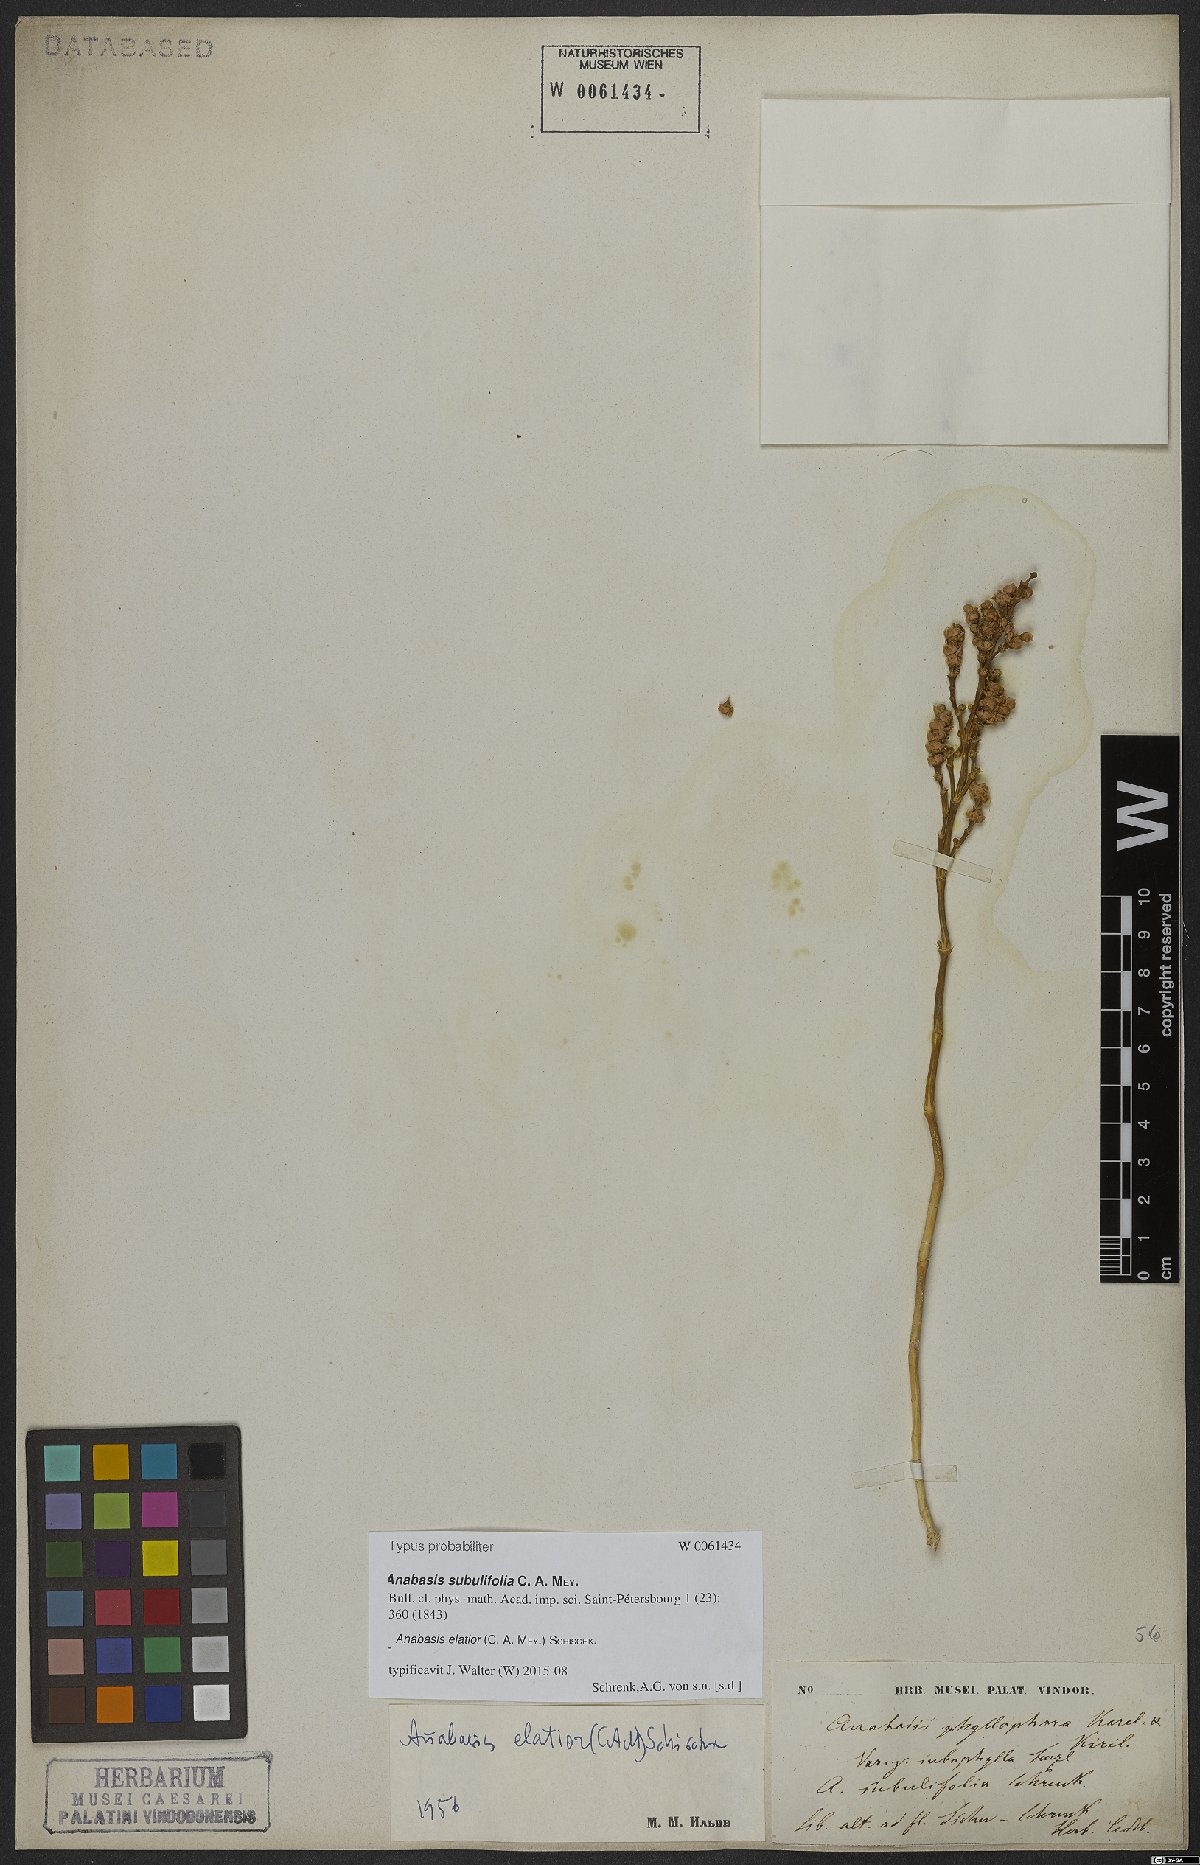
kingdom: Plantae
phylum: Tracheophyta
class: Magnoliopsida
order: Caryophyllales
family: Amaranthaceae
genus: Anabasis
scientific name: Anabasis elatior
